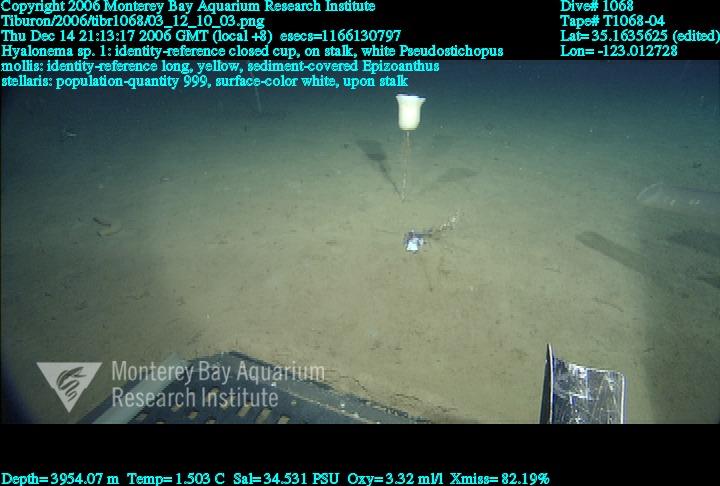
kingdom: Animalia
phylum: Porifera
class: Hexactinellida
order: Amphidiscosida
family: Hyalonematidae
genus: Hyalonema
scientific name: Hyalonema
